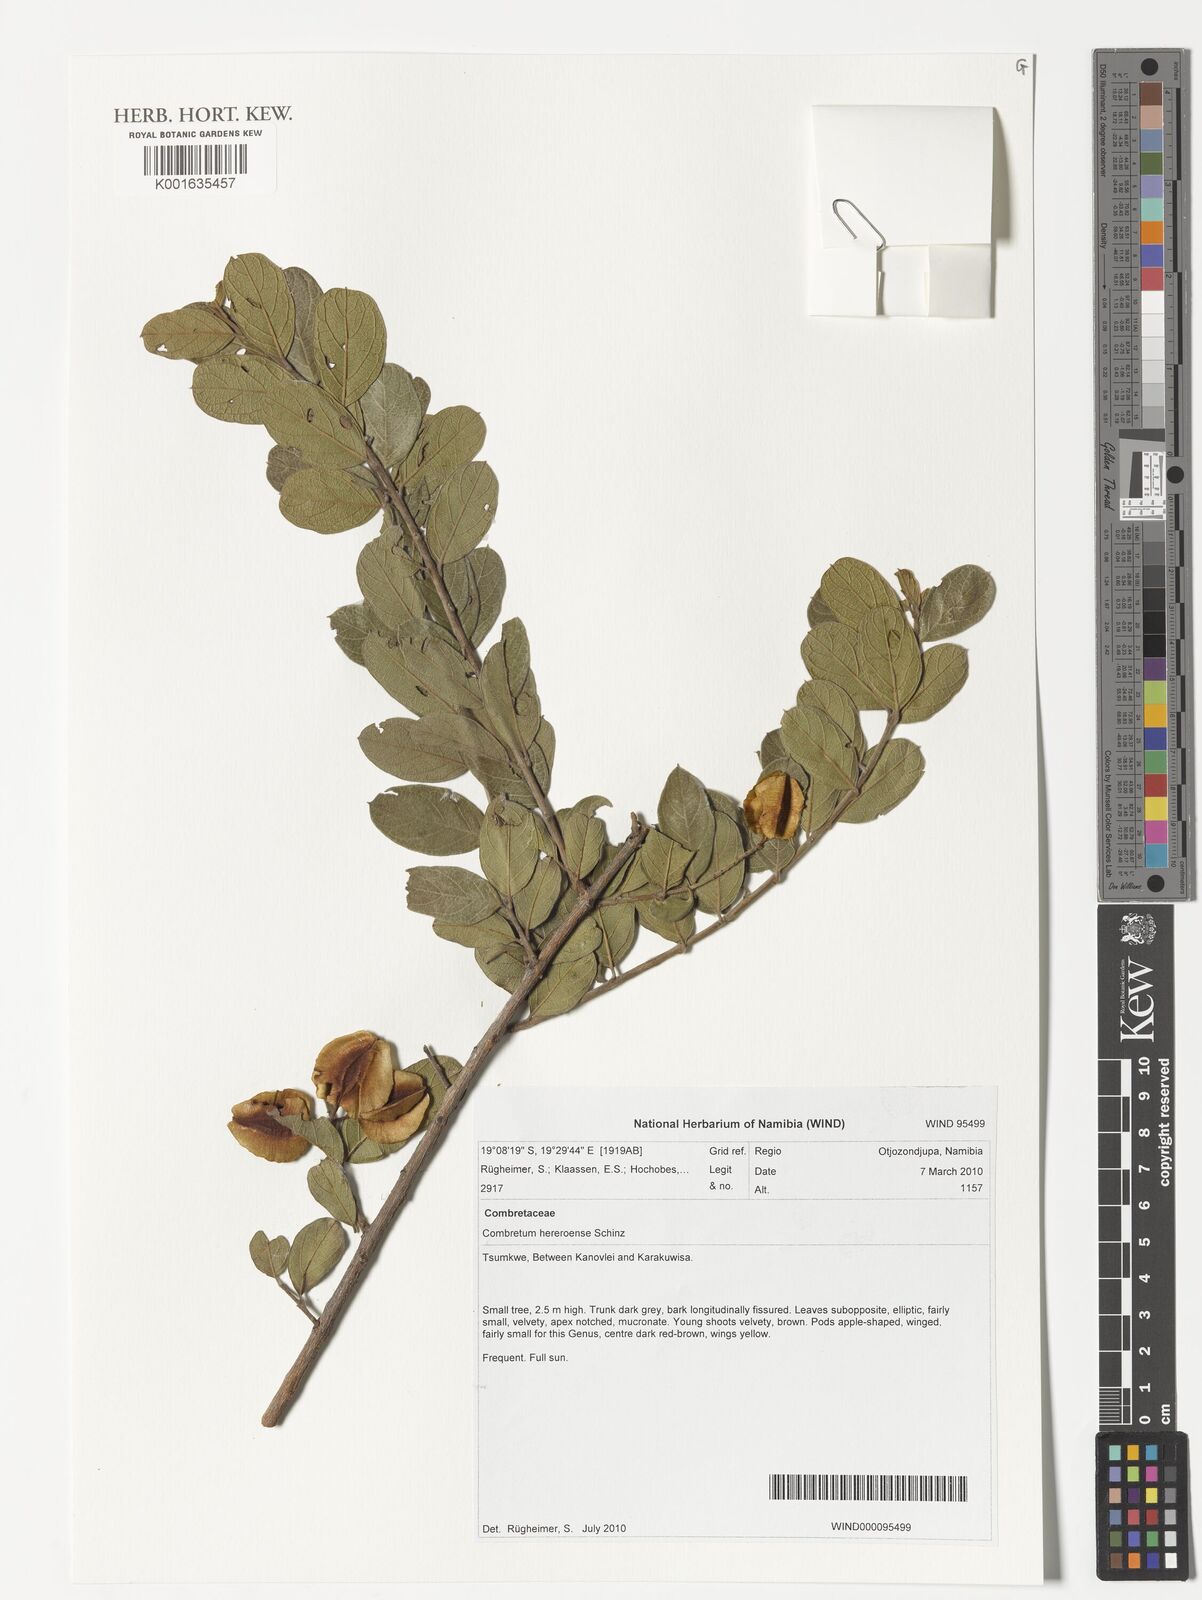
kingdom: Plantae
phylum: Tracheophyta
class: Magnoliopsida
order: Myrtales
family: Combretaceae
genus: Combretum
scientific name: Combretum hereroense
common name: Russet bushwillow
